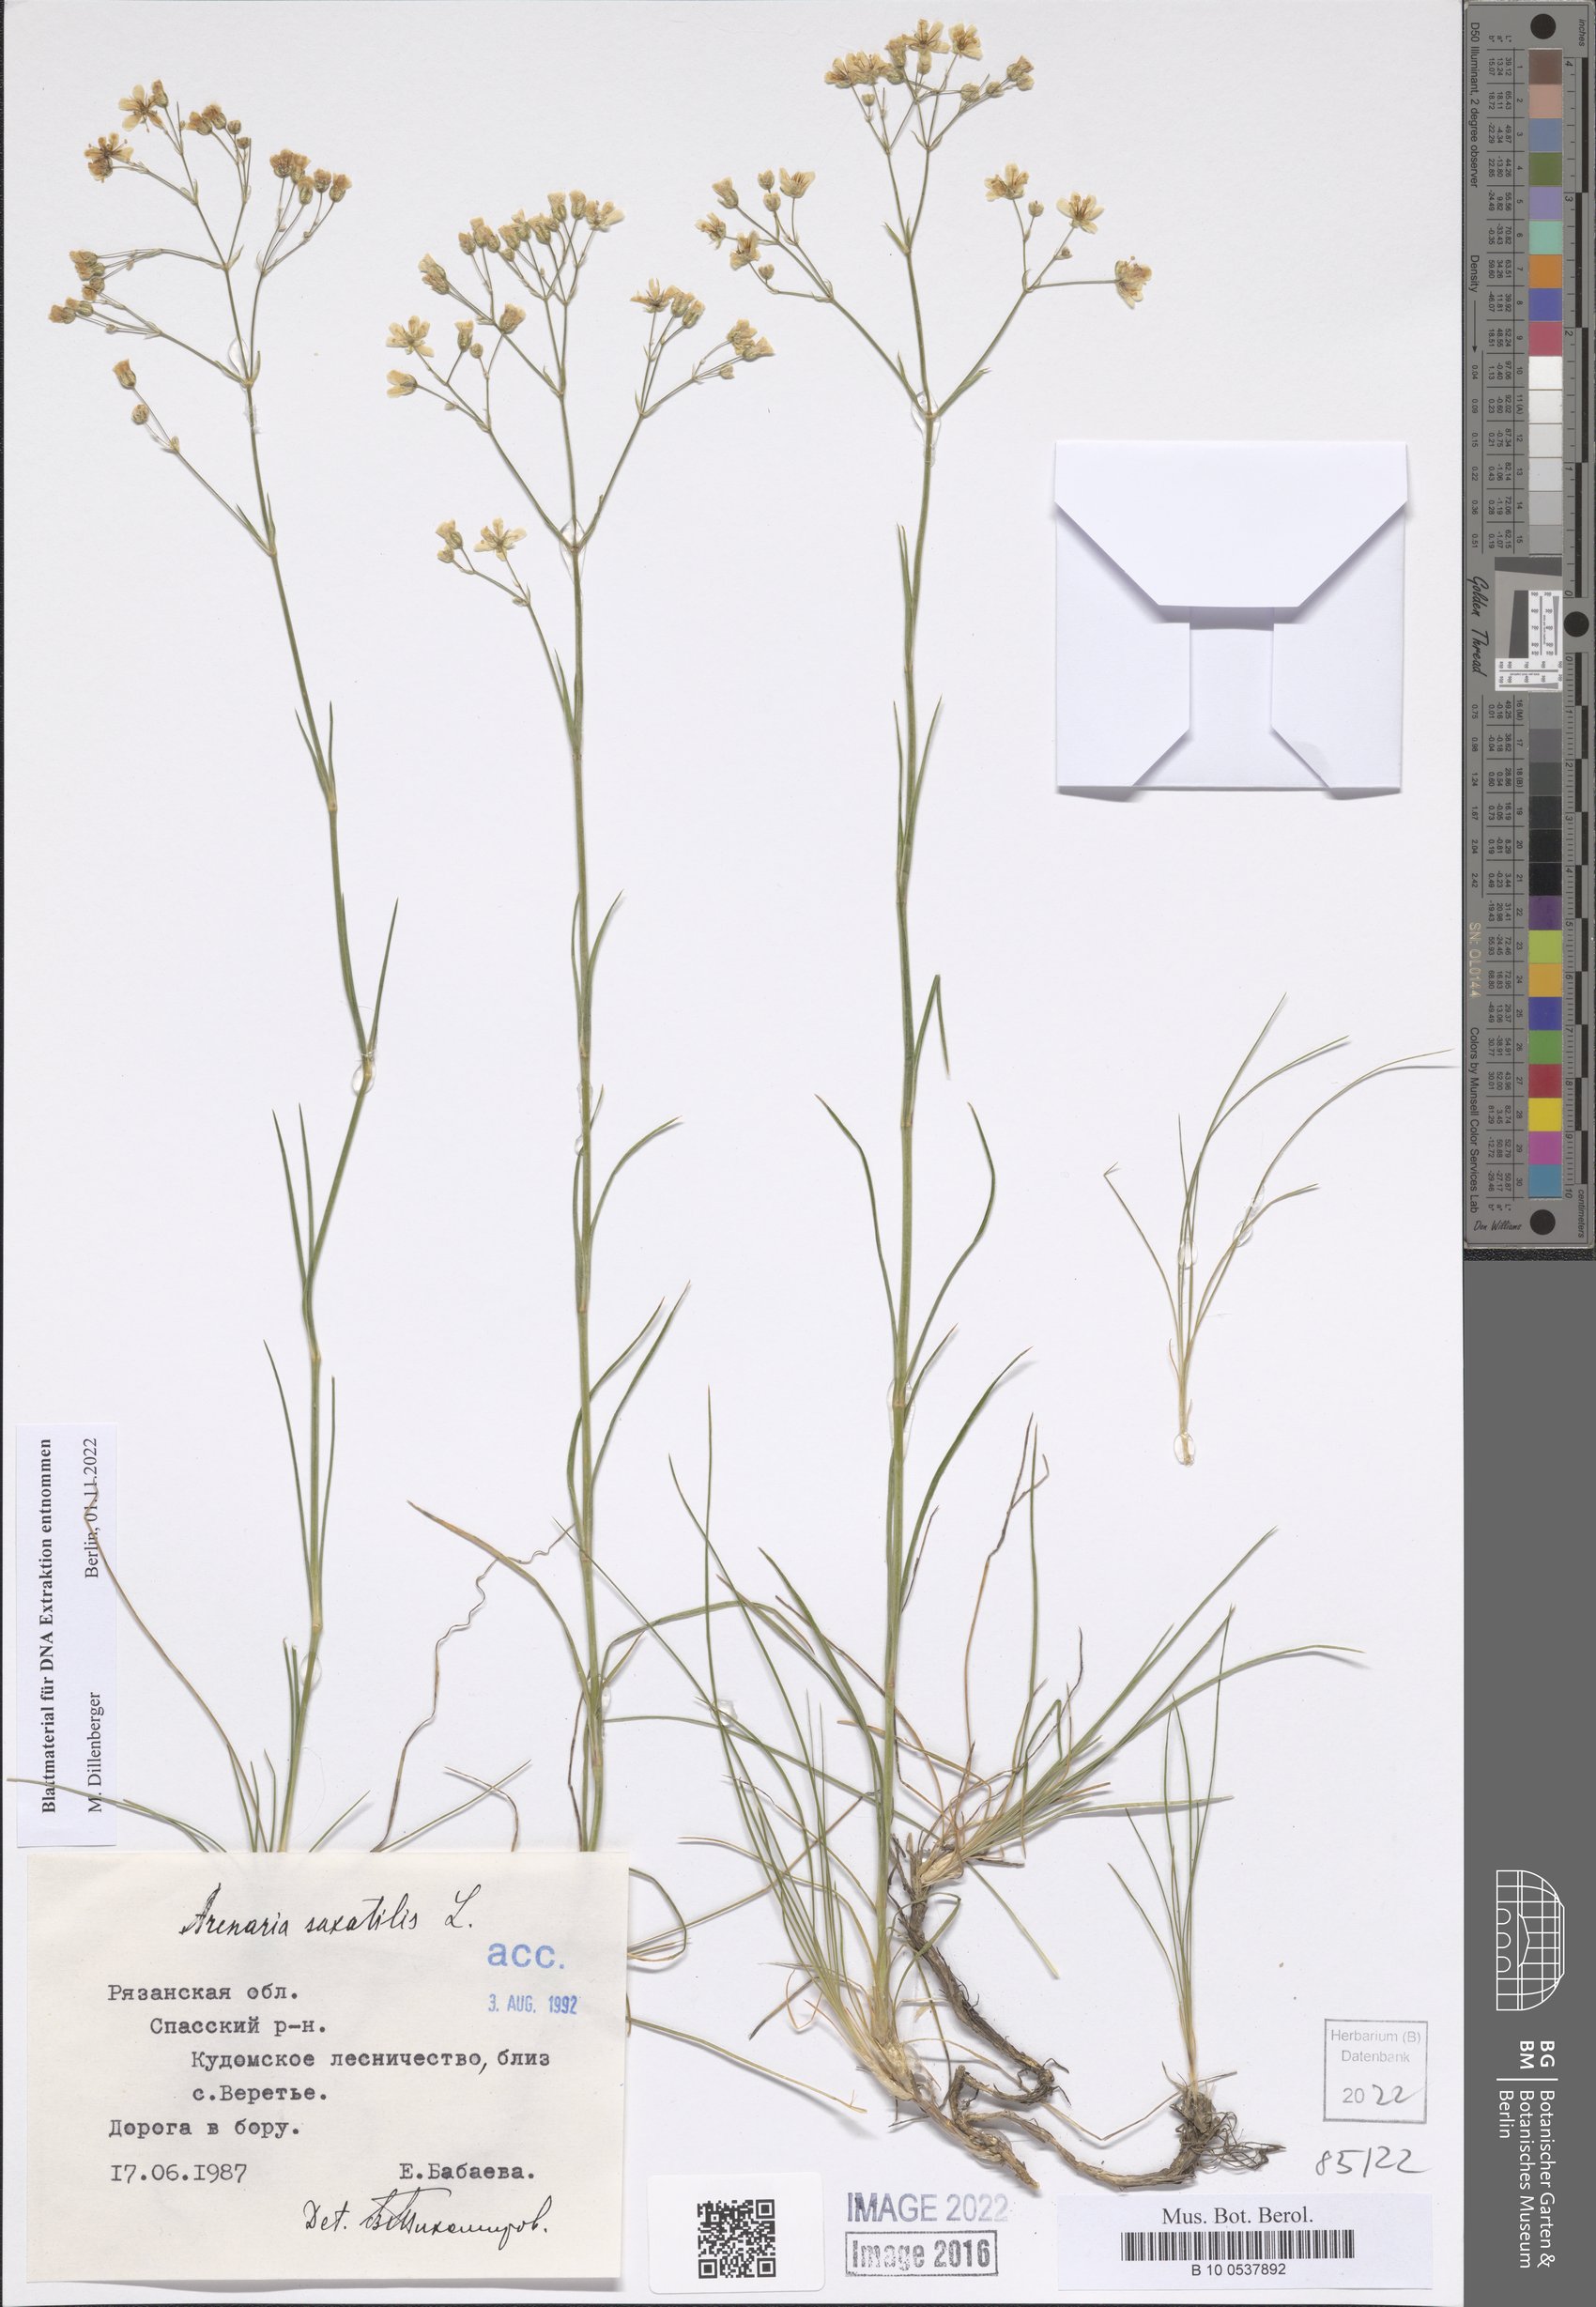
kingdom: Plantae
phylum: Tracheophyta
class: Magnoliopsida
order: Caryophyllales
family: Caryophyllaceae
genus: Eremogone
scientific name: Eremogone saxatilis
